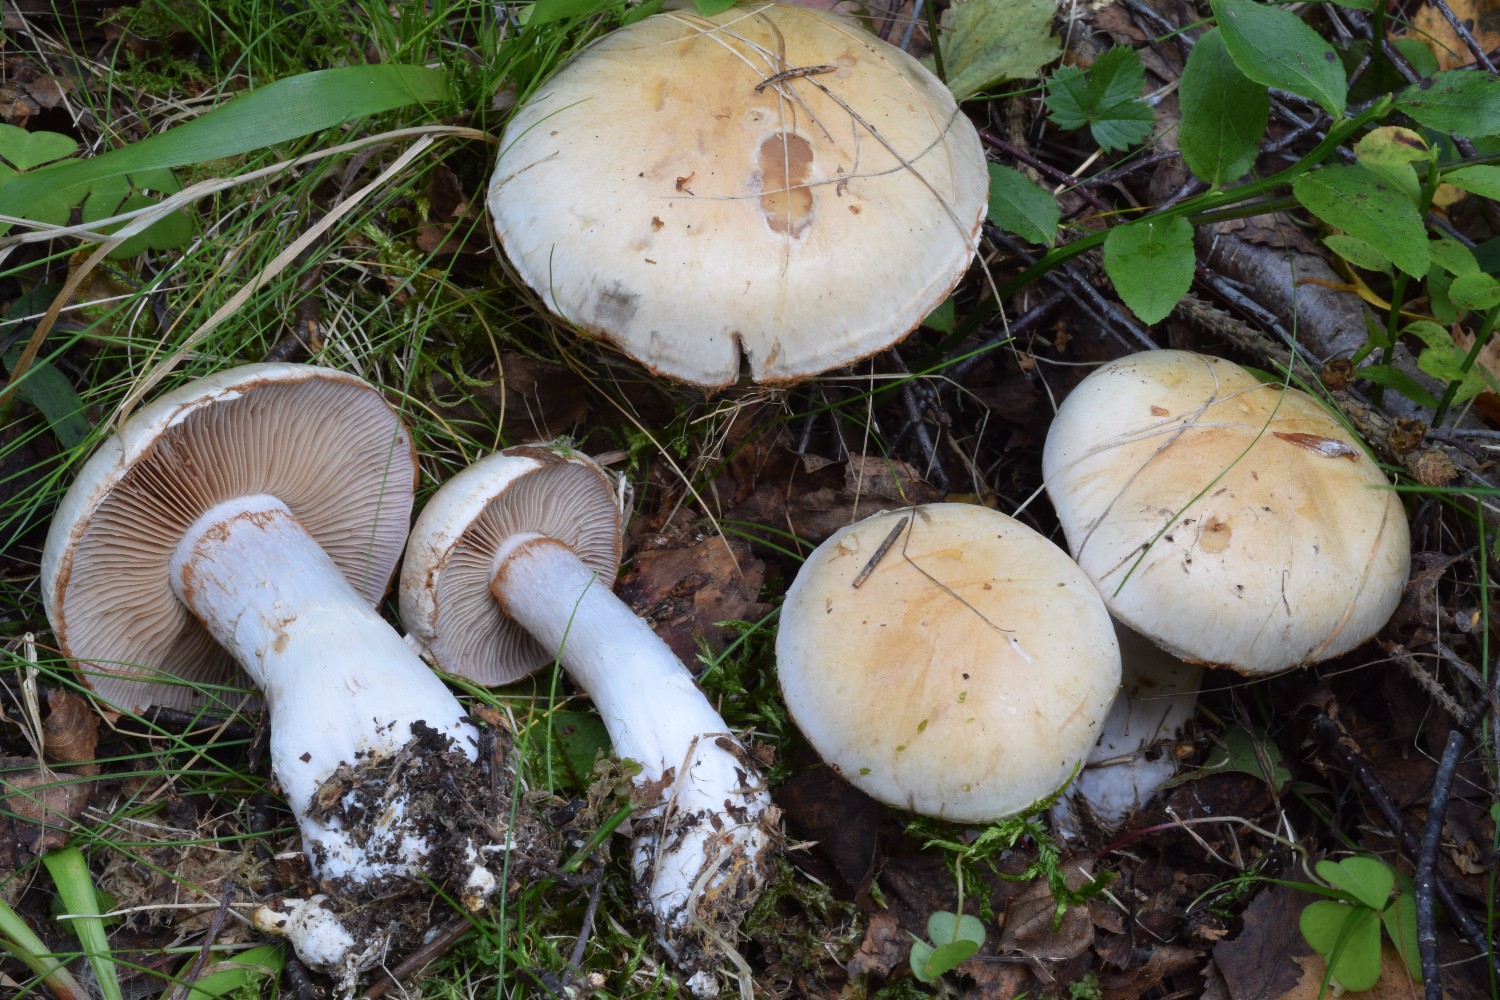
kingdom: Fungi
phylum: Basidiomycota
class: Agaricomycetes
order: Agaricales
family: Cortinariaceae
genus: Cortinarius
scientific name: Cortinarius largus
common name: violetrandet slørhat
